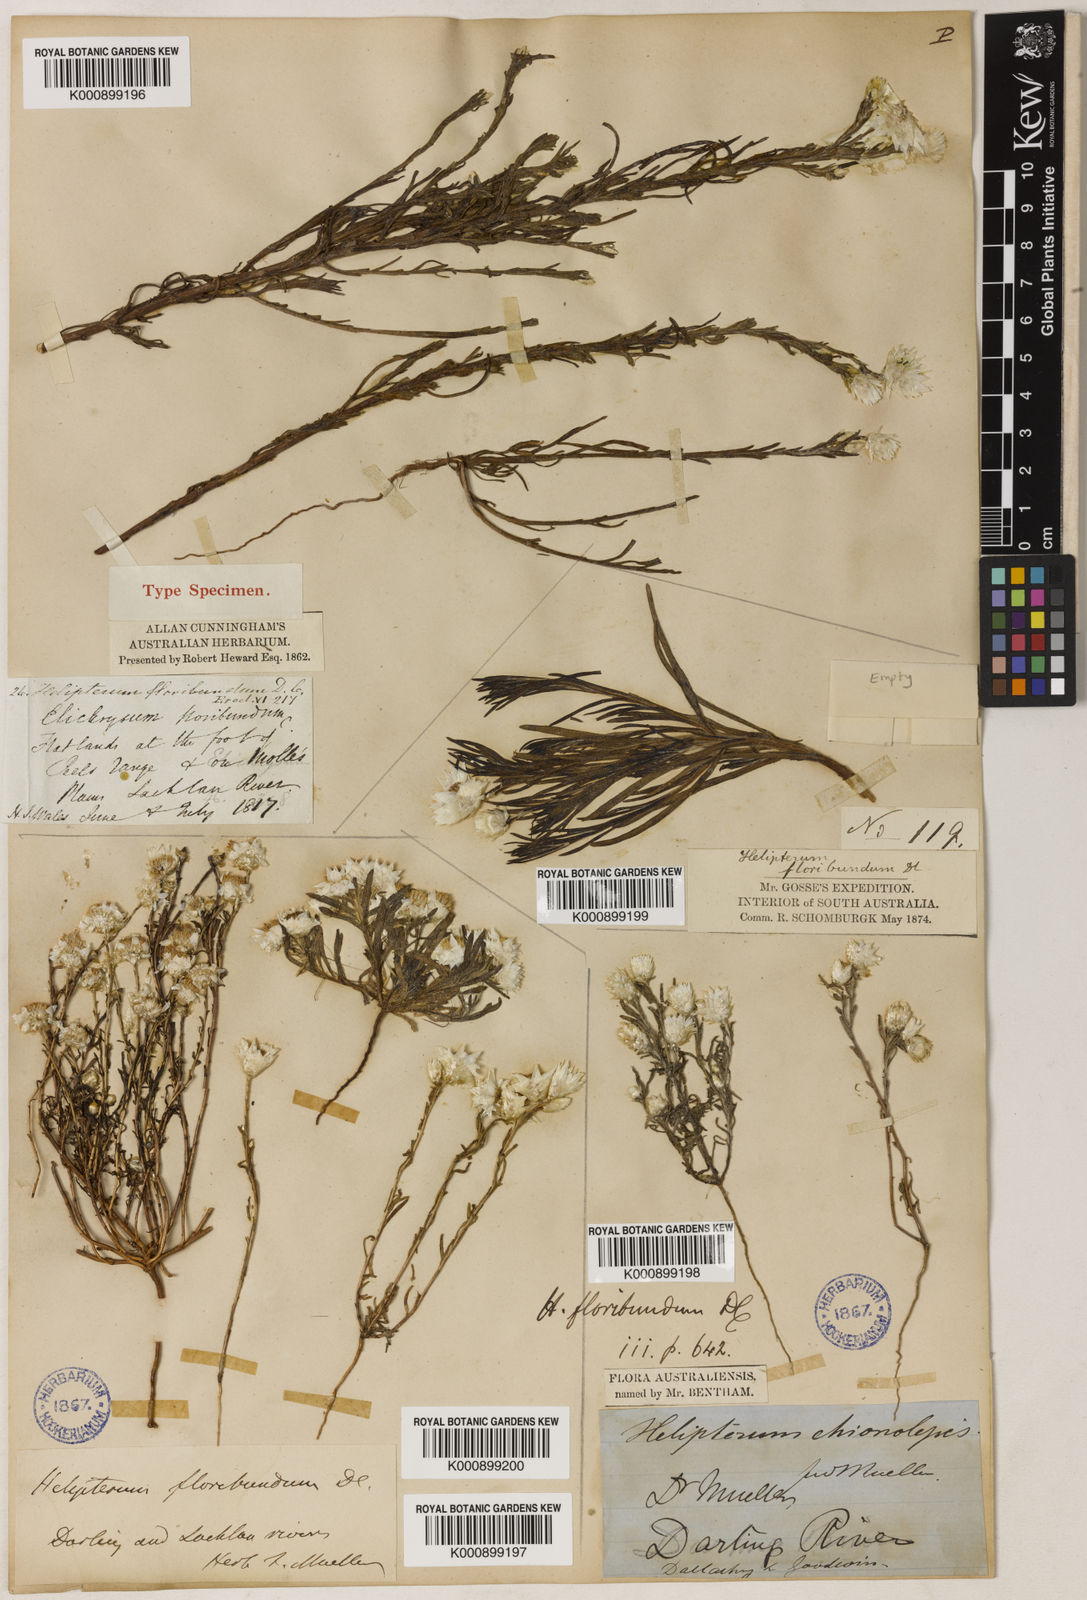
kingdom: Plantae
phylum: Tracheophyta
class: Magnoliopsida
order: Asterales
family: Asteraceae
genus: Rhodanthe
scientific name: Rhodanthe floribunda
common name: Flowery sunray
